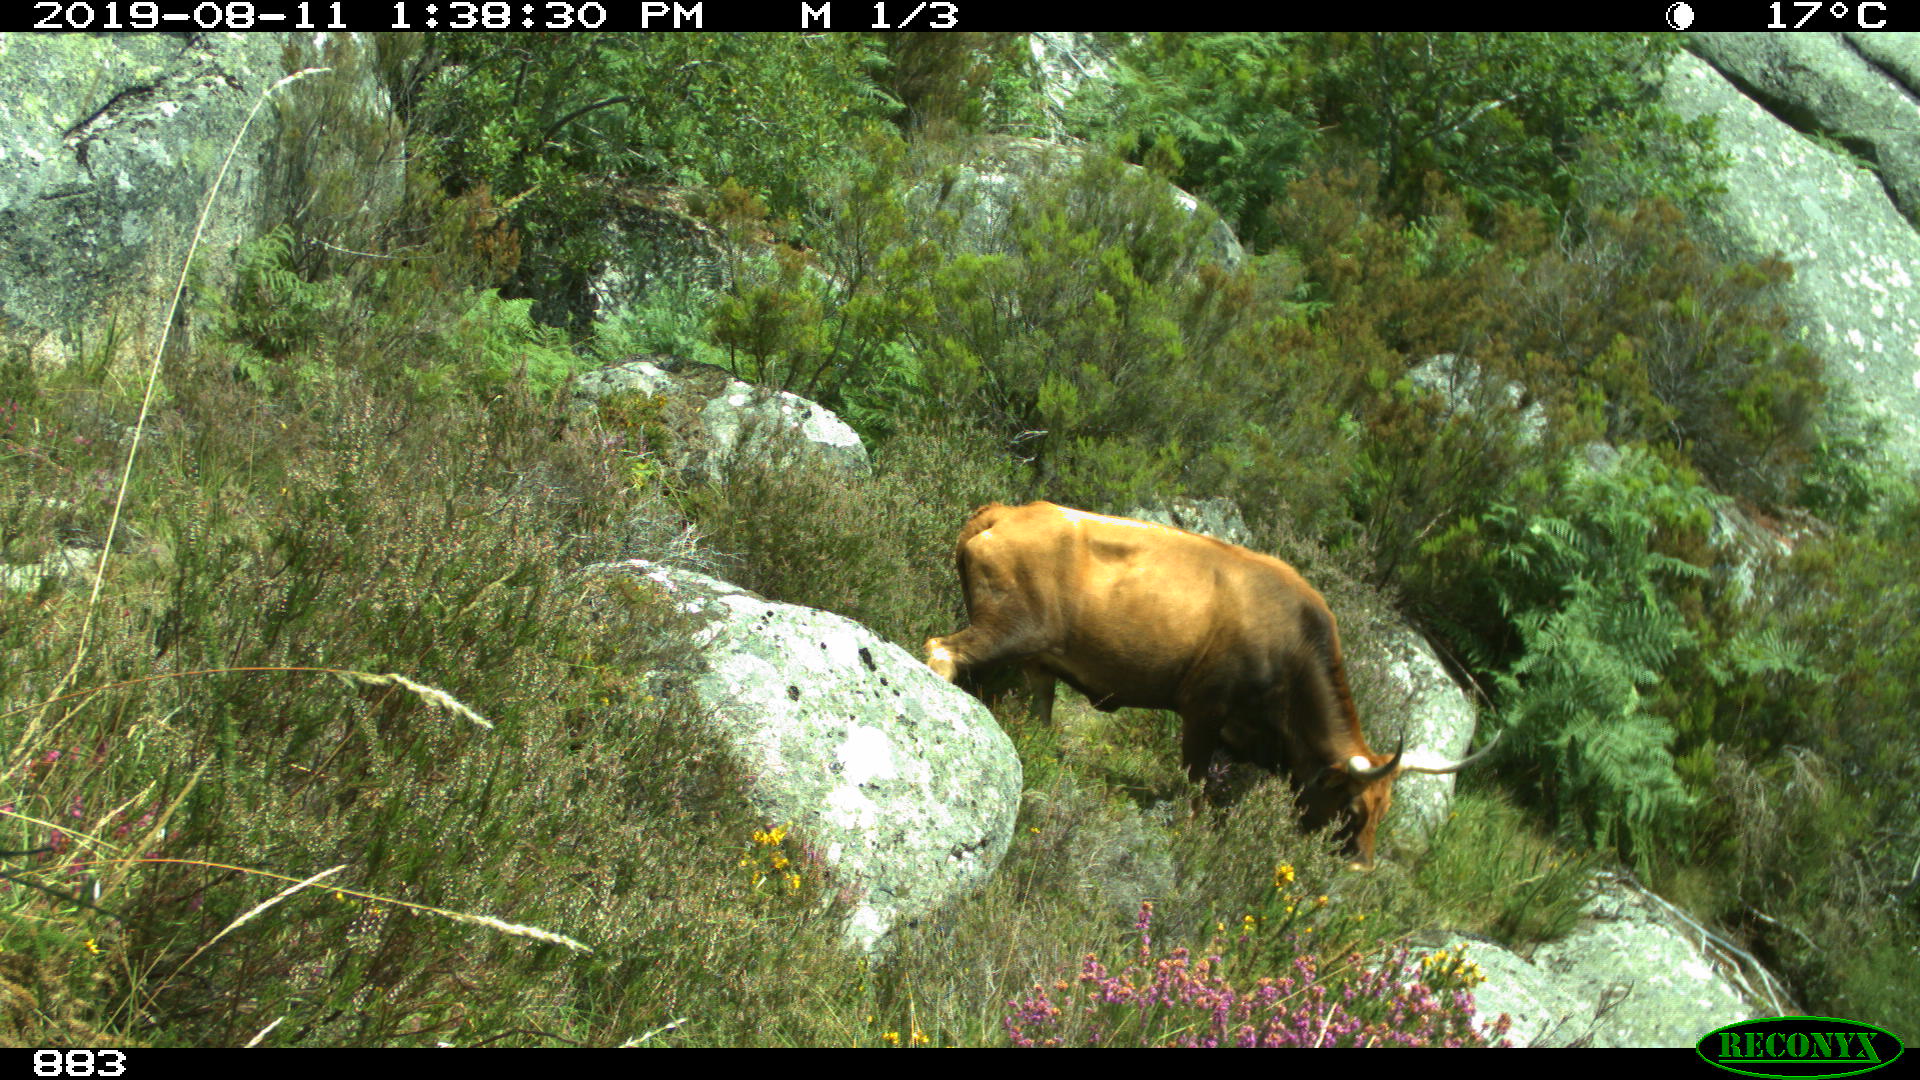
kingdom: Animalia
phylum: Chordata
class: Mammalia
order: Artiodactyla
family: Bovidae
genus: Bos
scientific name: Bos taurus
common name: Domesticated cattle
